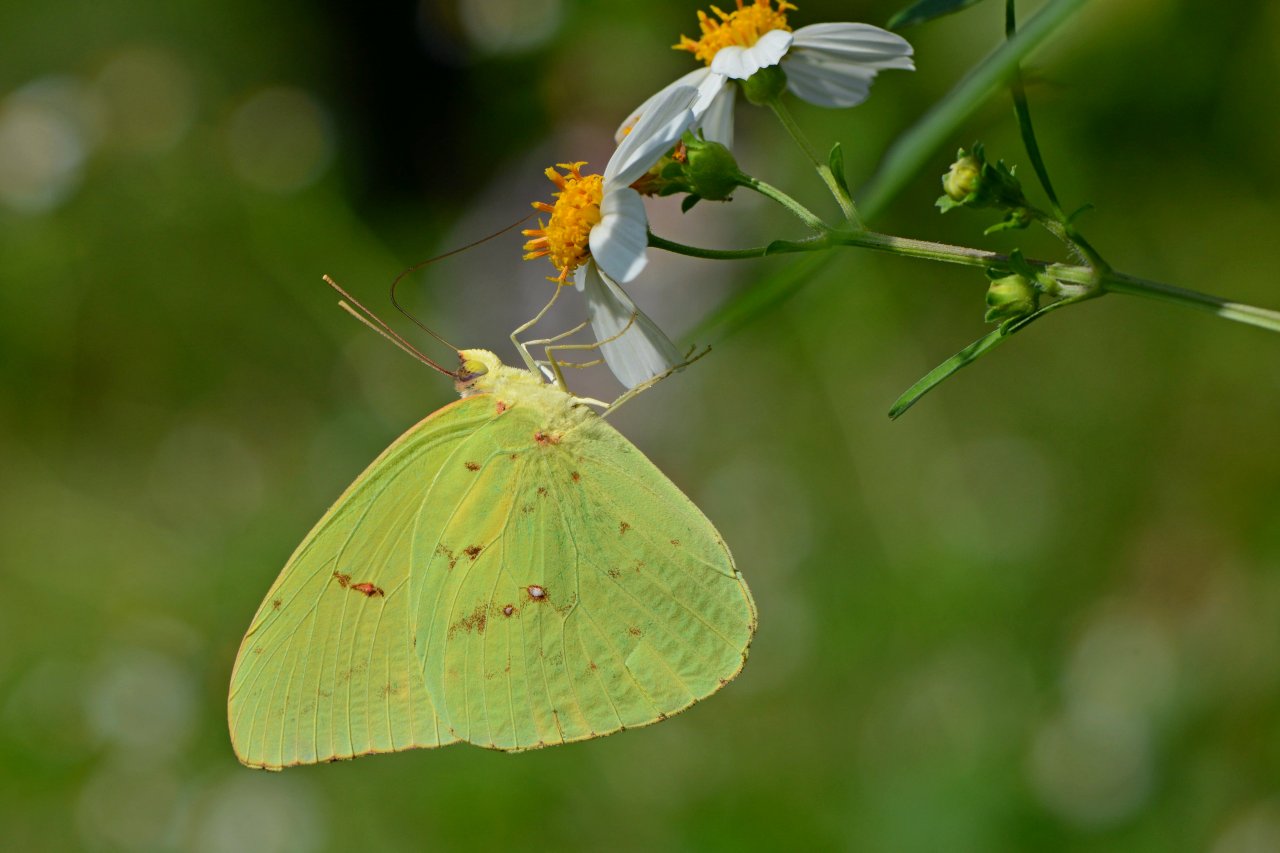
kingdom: Animalia
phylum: Arthropoda
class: Insecta
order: Lepidoptera
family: Pieridae
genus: Phoebis
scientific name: Phoebis sennae
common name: Cloudless Sulphur
